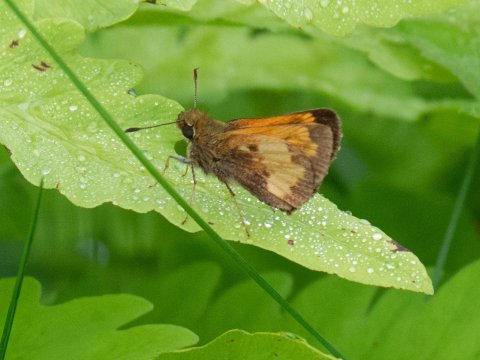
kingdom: Animalia
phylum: Arthropoda
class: Insecta
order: Lepidoptera
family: Hesperiidae
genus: Lon
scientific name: Lon hobomok
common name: Hobomok Skipper
